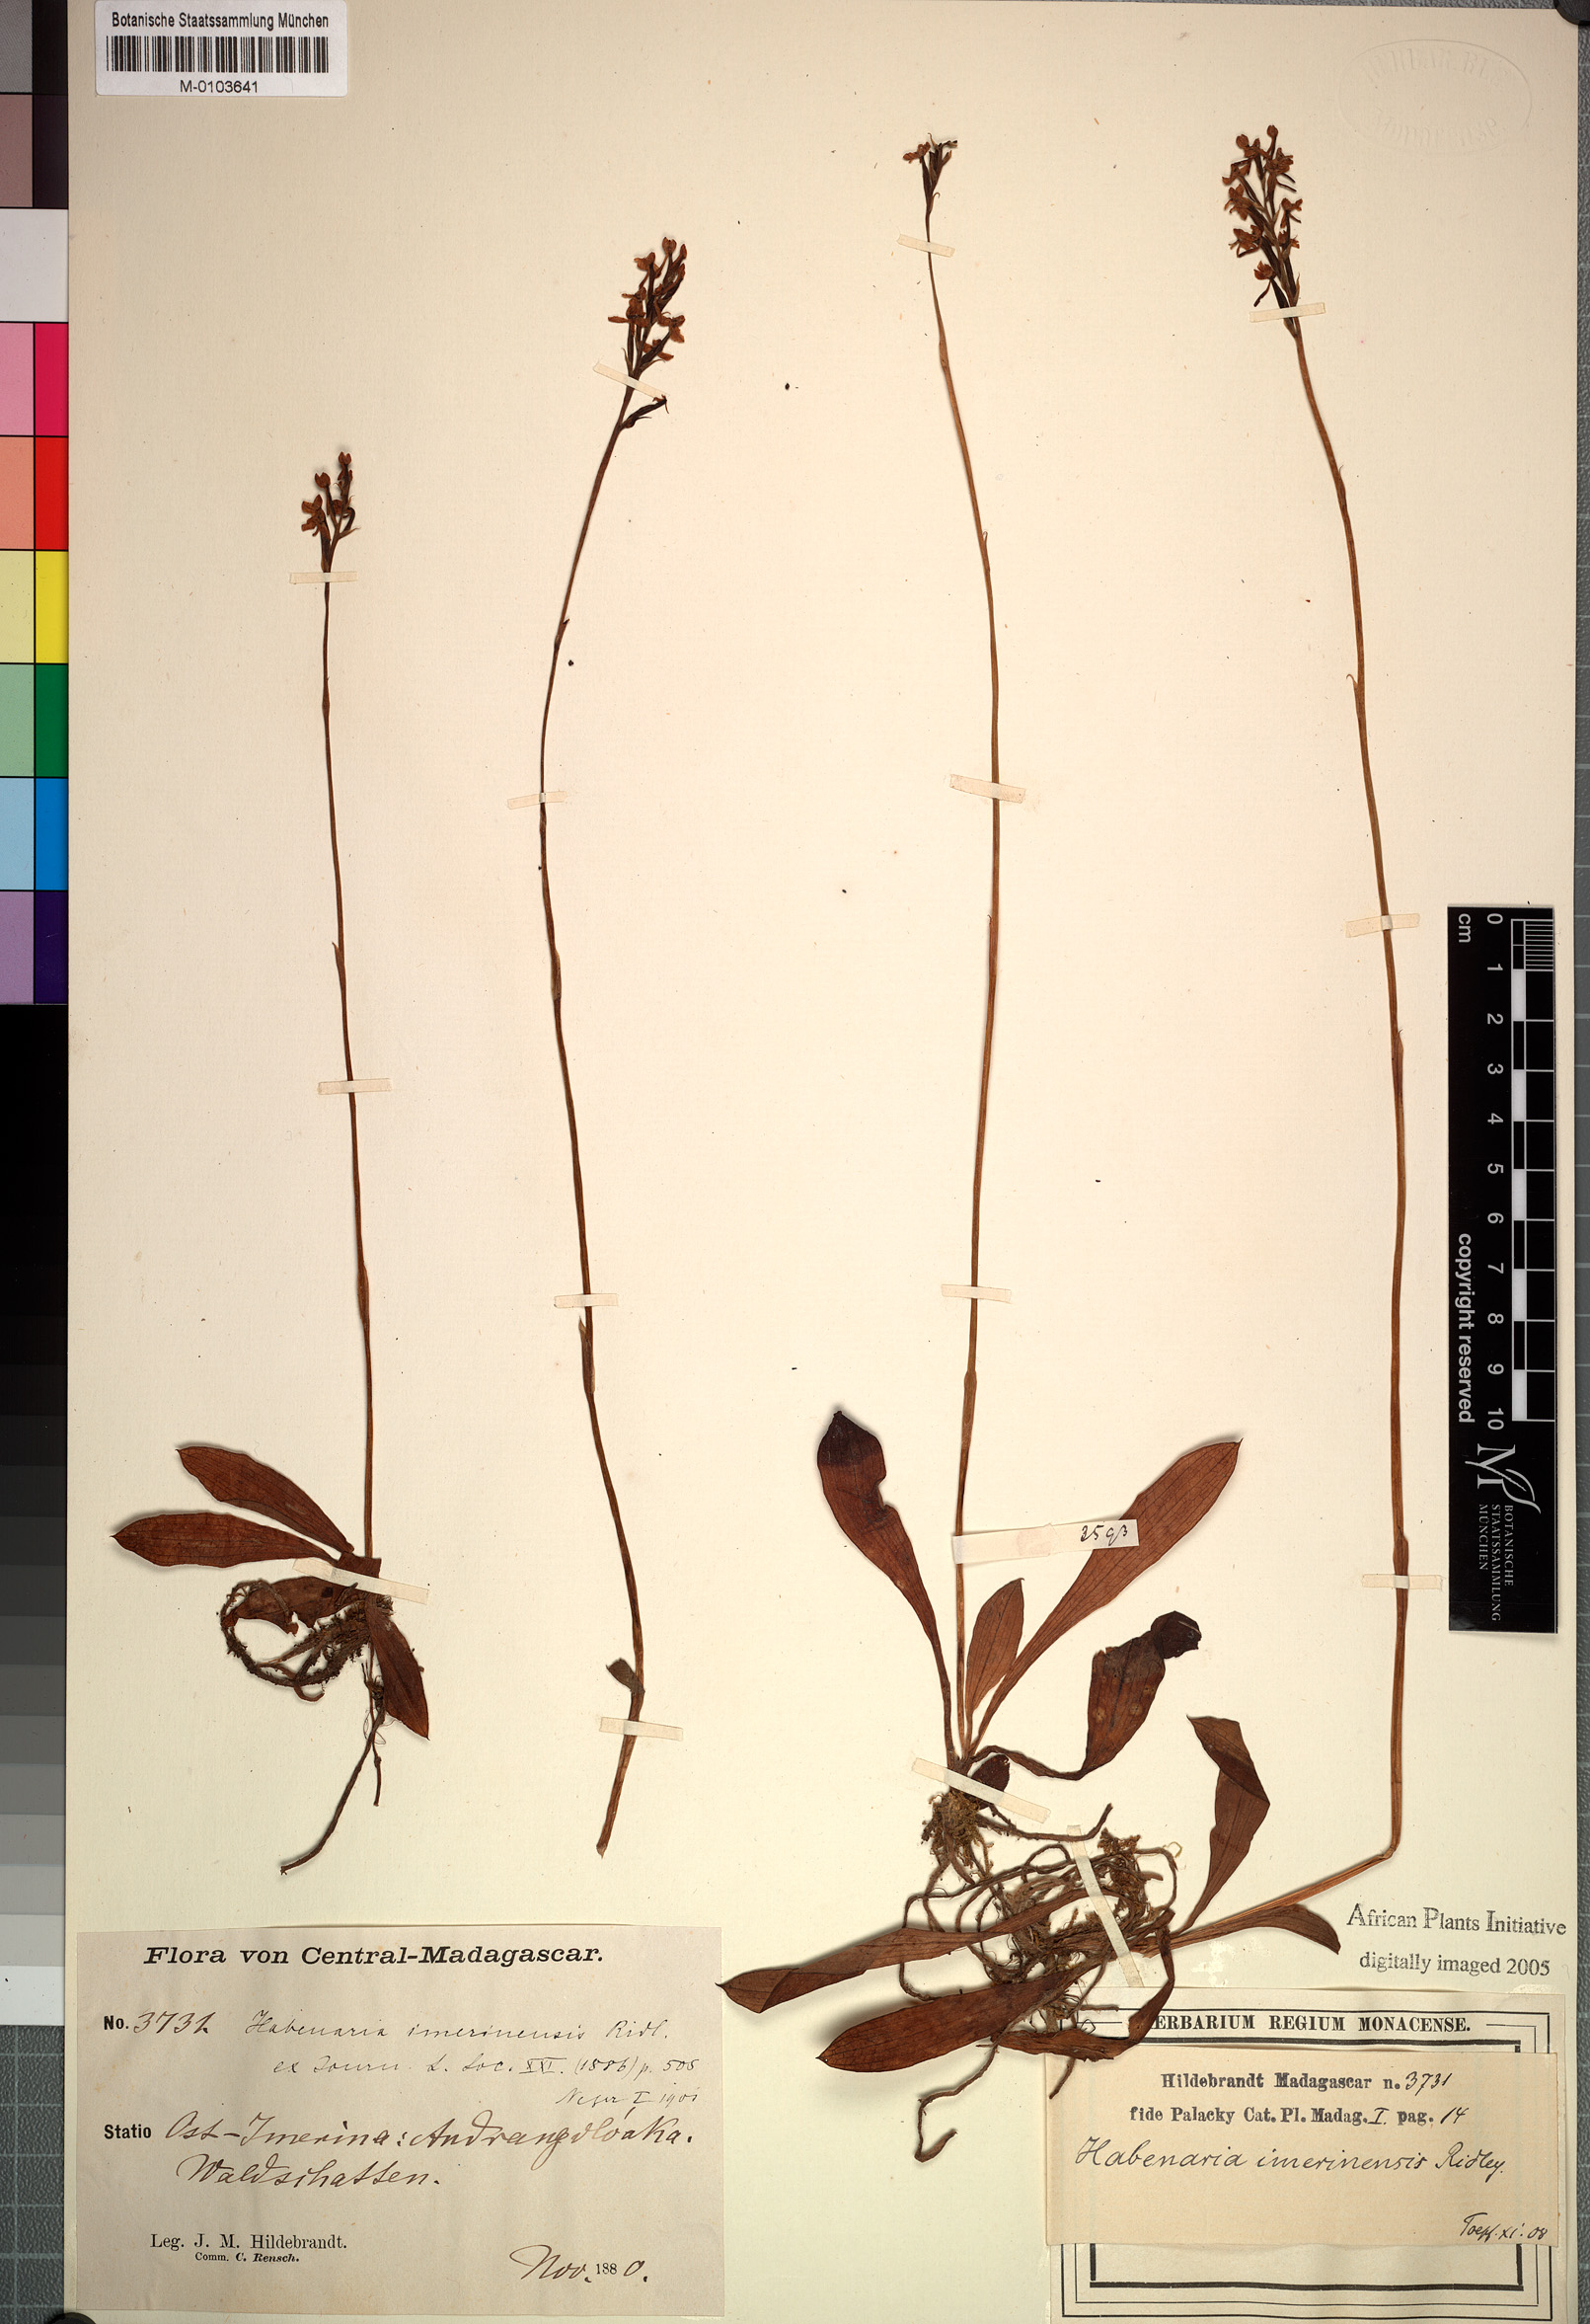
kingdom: Plantae
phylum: Tracheophyta
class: Liliopsida
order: Asparagales
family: Orchidaceae
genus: Cynorkis
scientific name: Cynorkis rosellata
